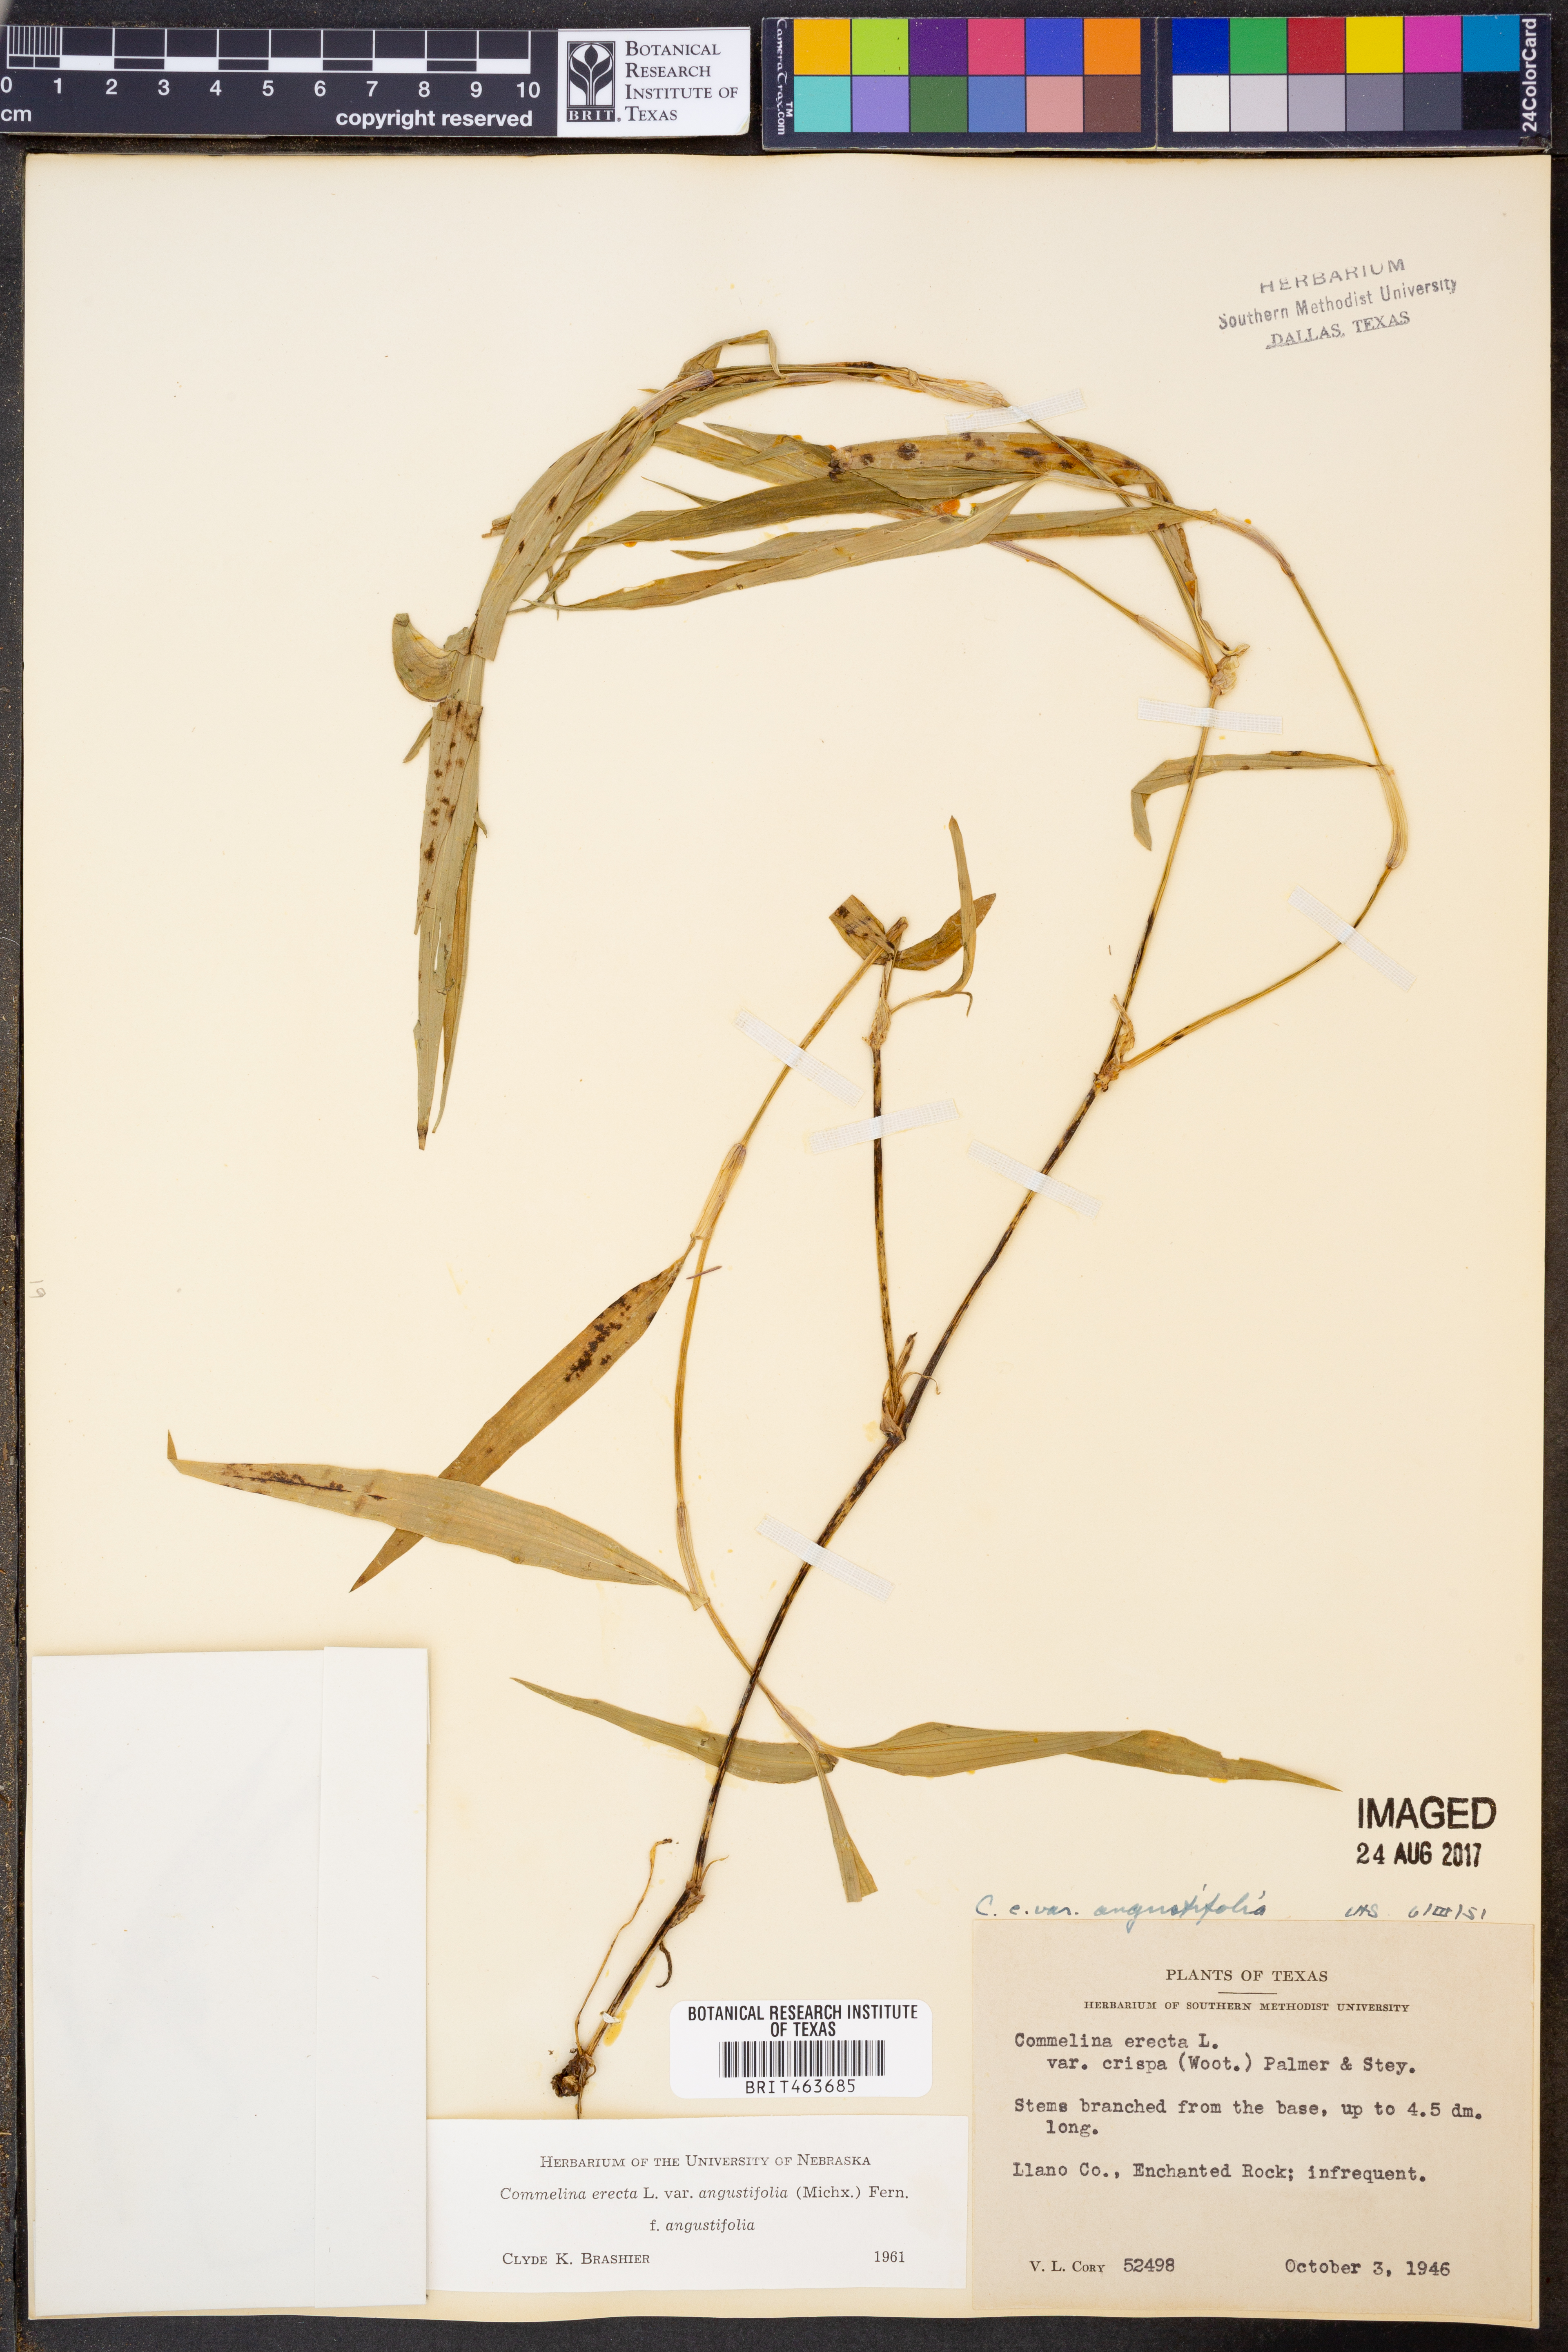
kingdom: Plantae
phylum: Tracheophyta
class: Liliopsida
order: Commelinales
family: Commelinaceae
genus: Commelina
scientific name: Commelina erecta
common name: Blousel blommetjie
